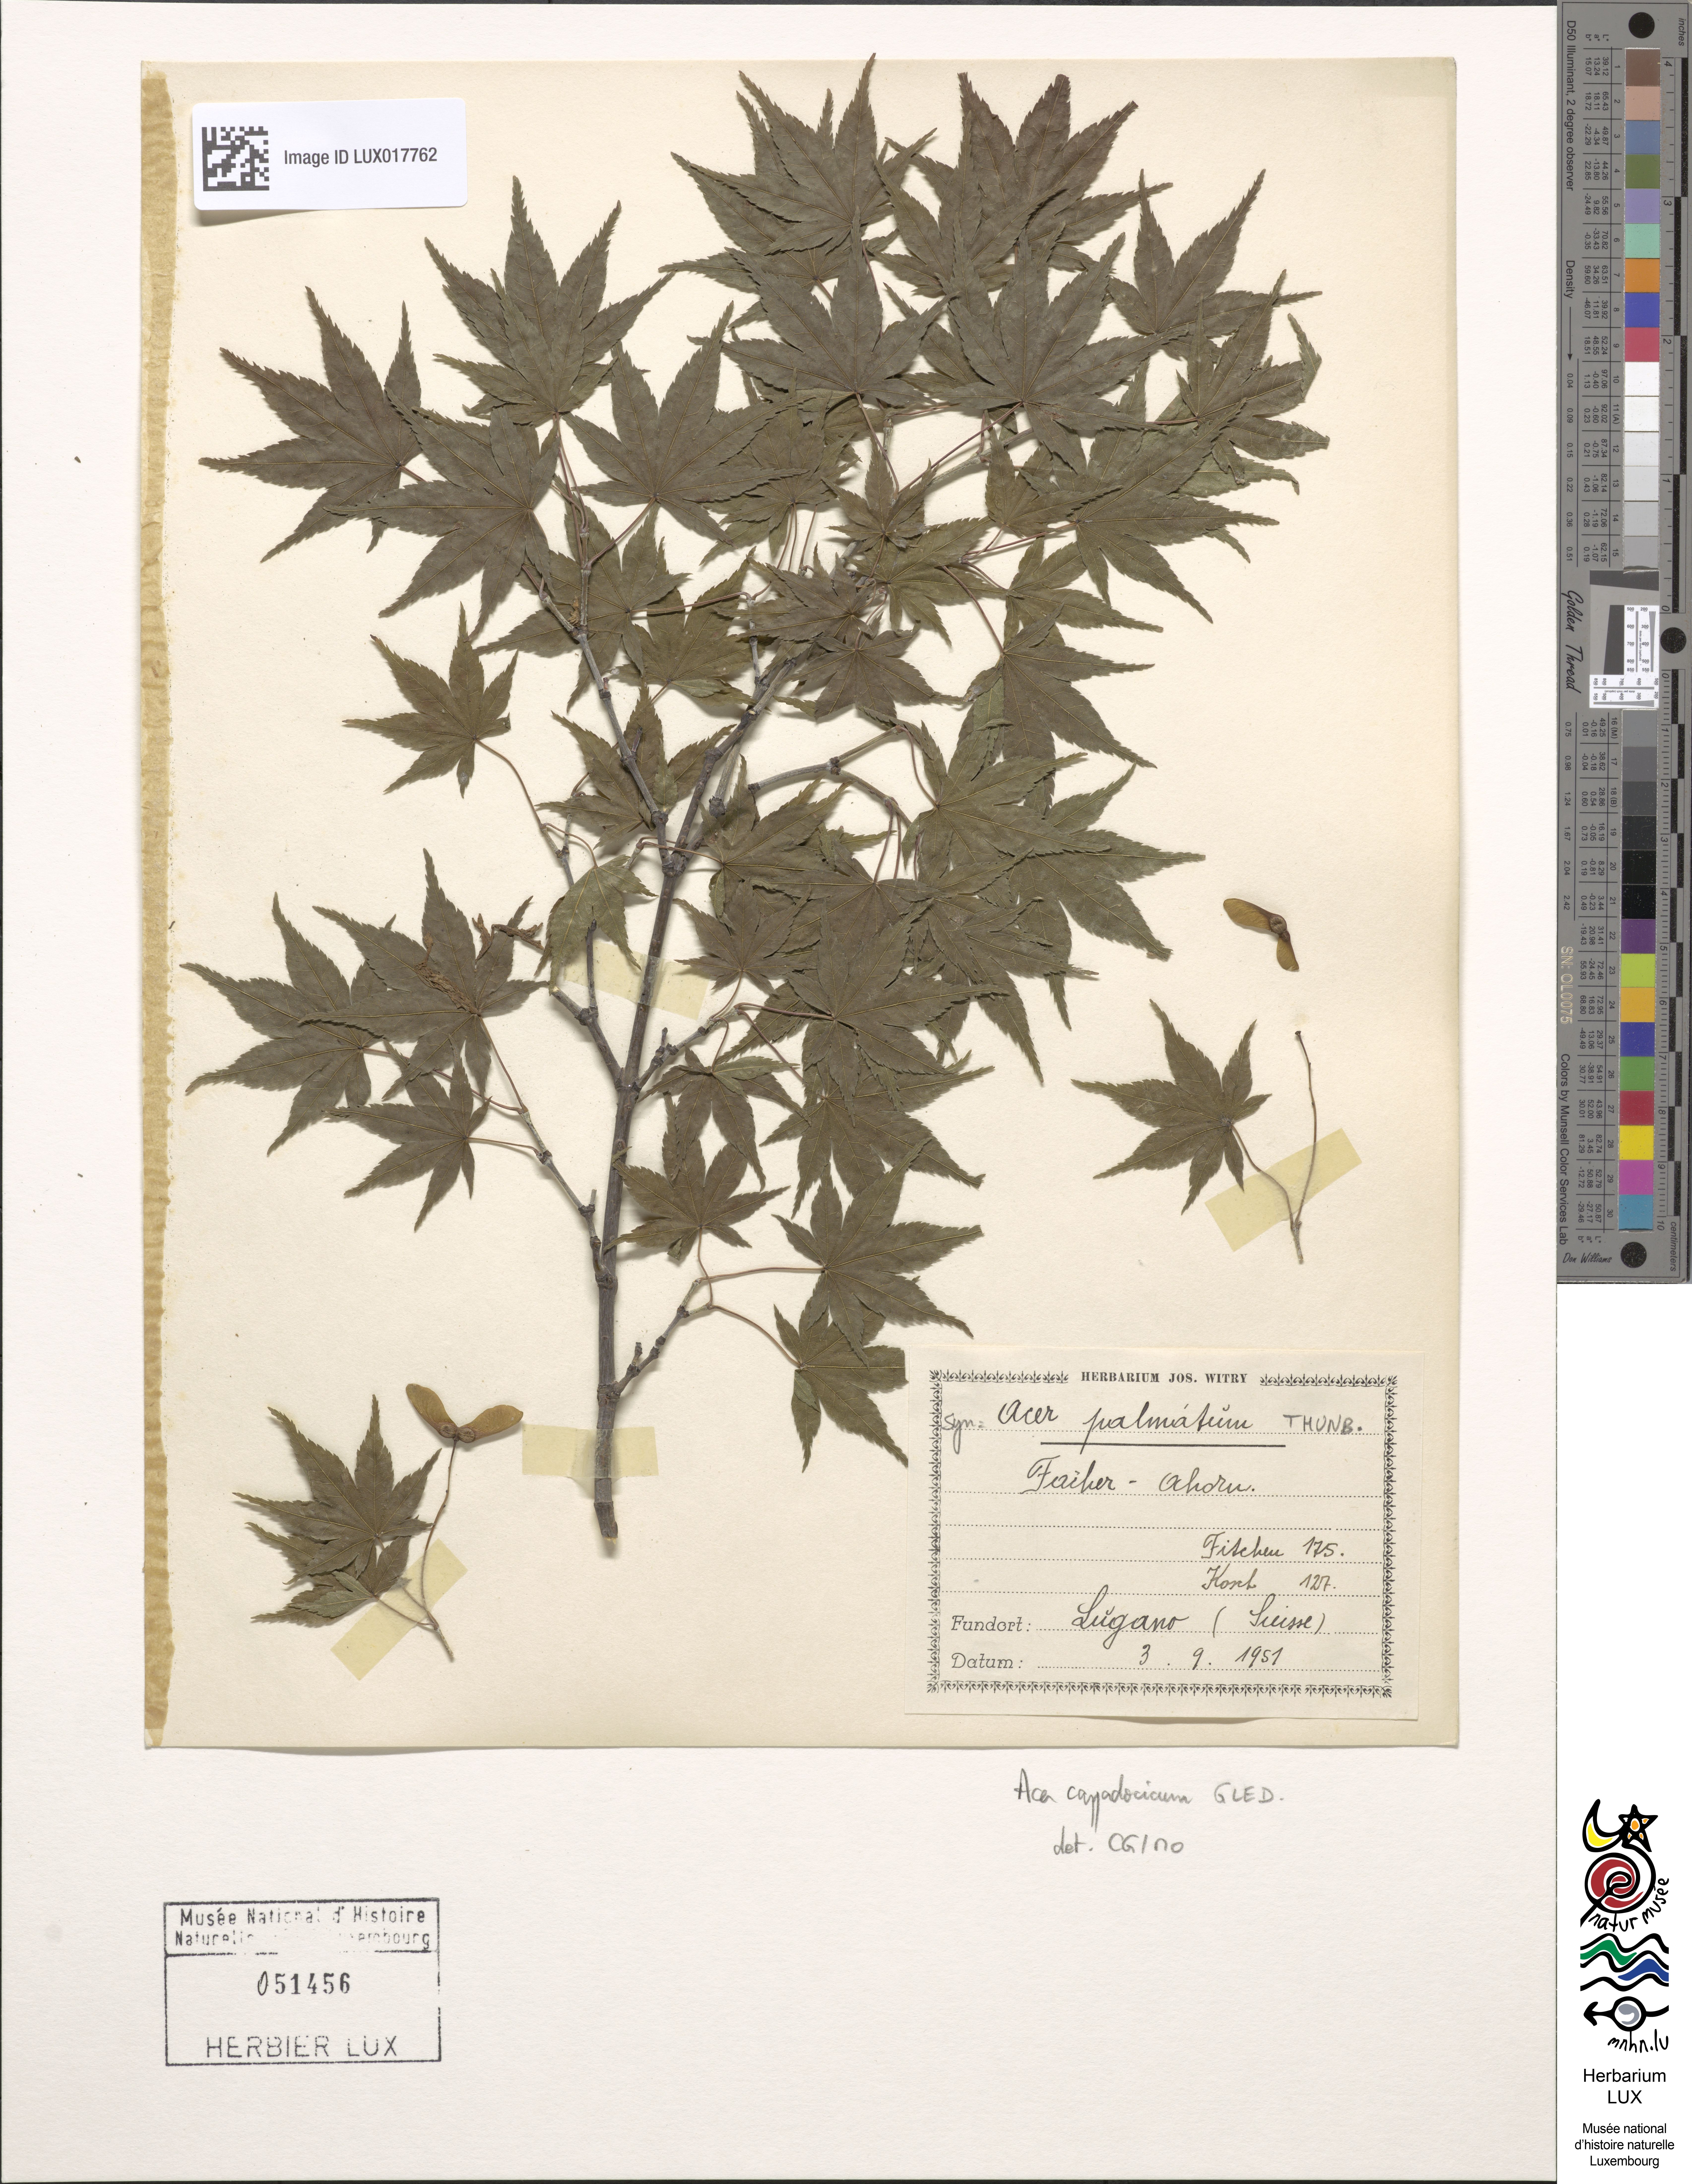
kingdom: Plantae
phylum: Tracheophyta
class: Magnoliopsida
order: Sapindales
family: Sapindaceae
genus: Acer
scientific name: Acer cappadocicum
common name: Cappadocian maple
